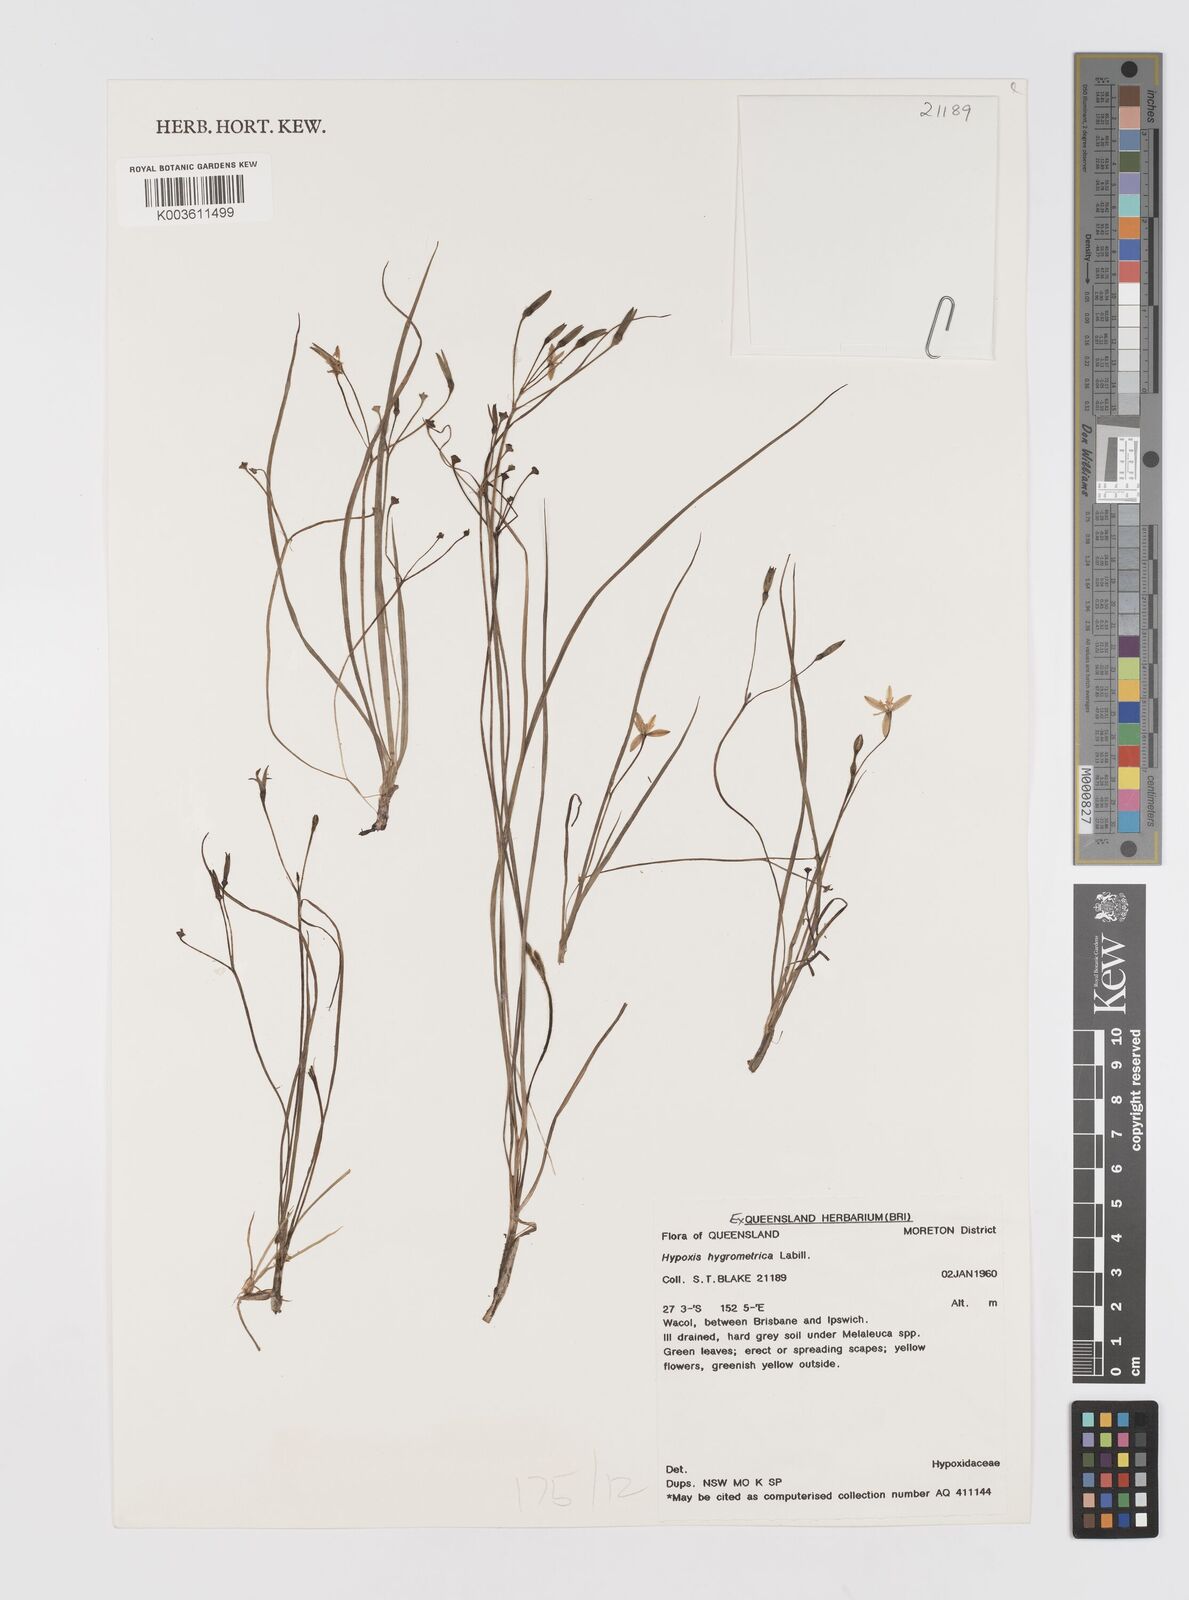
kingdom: Plantae
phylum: Tracheophyta
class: Liliopsida
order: Asparagales
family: Hypoxidaceae
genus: Hypoxis
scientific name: Hypoxis hygrometrica
